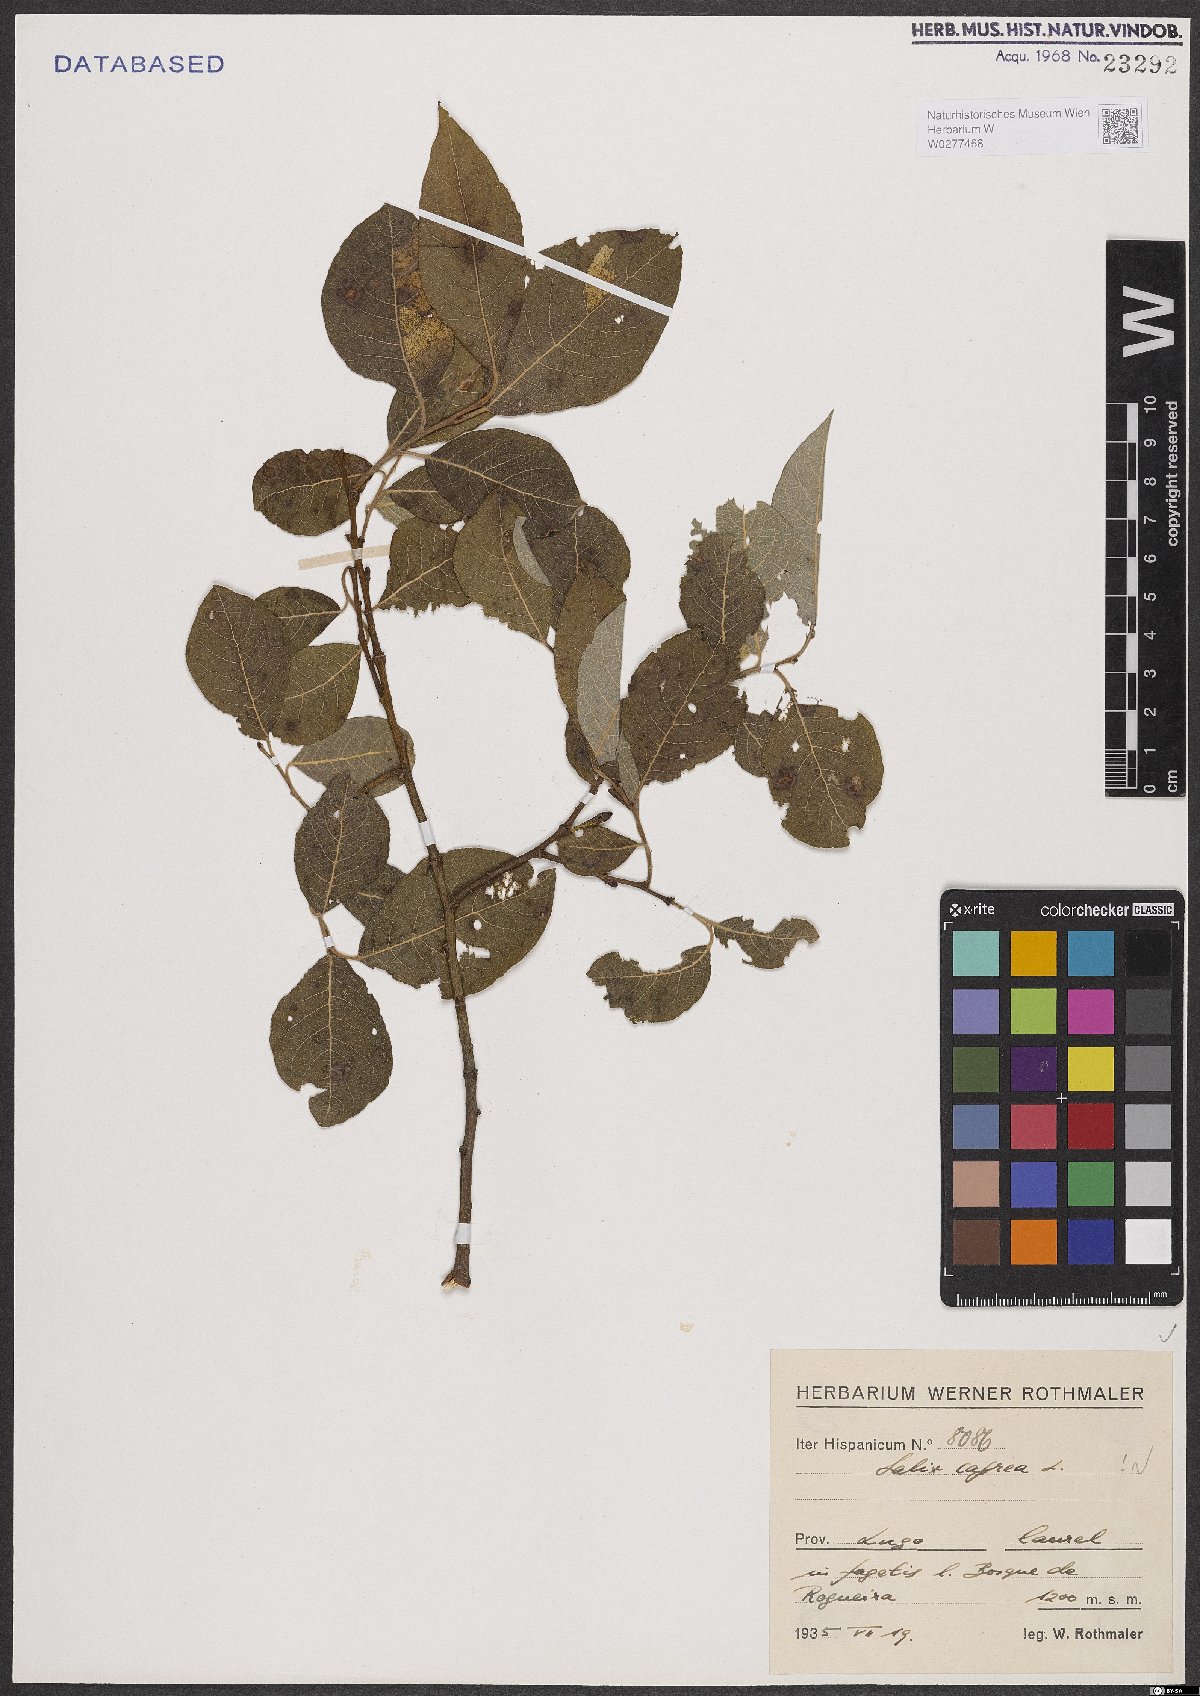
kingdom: Plantae
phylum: Tracheophyta
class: Magnoliopsida
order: Malpighiales
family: Salicaceae
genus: Salix
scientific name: Salix caprea
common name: Goat willow
